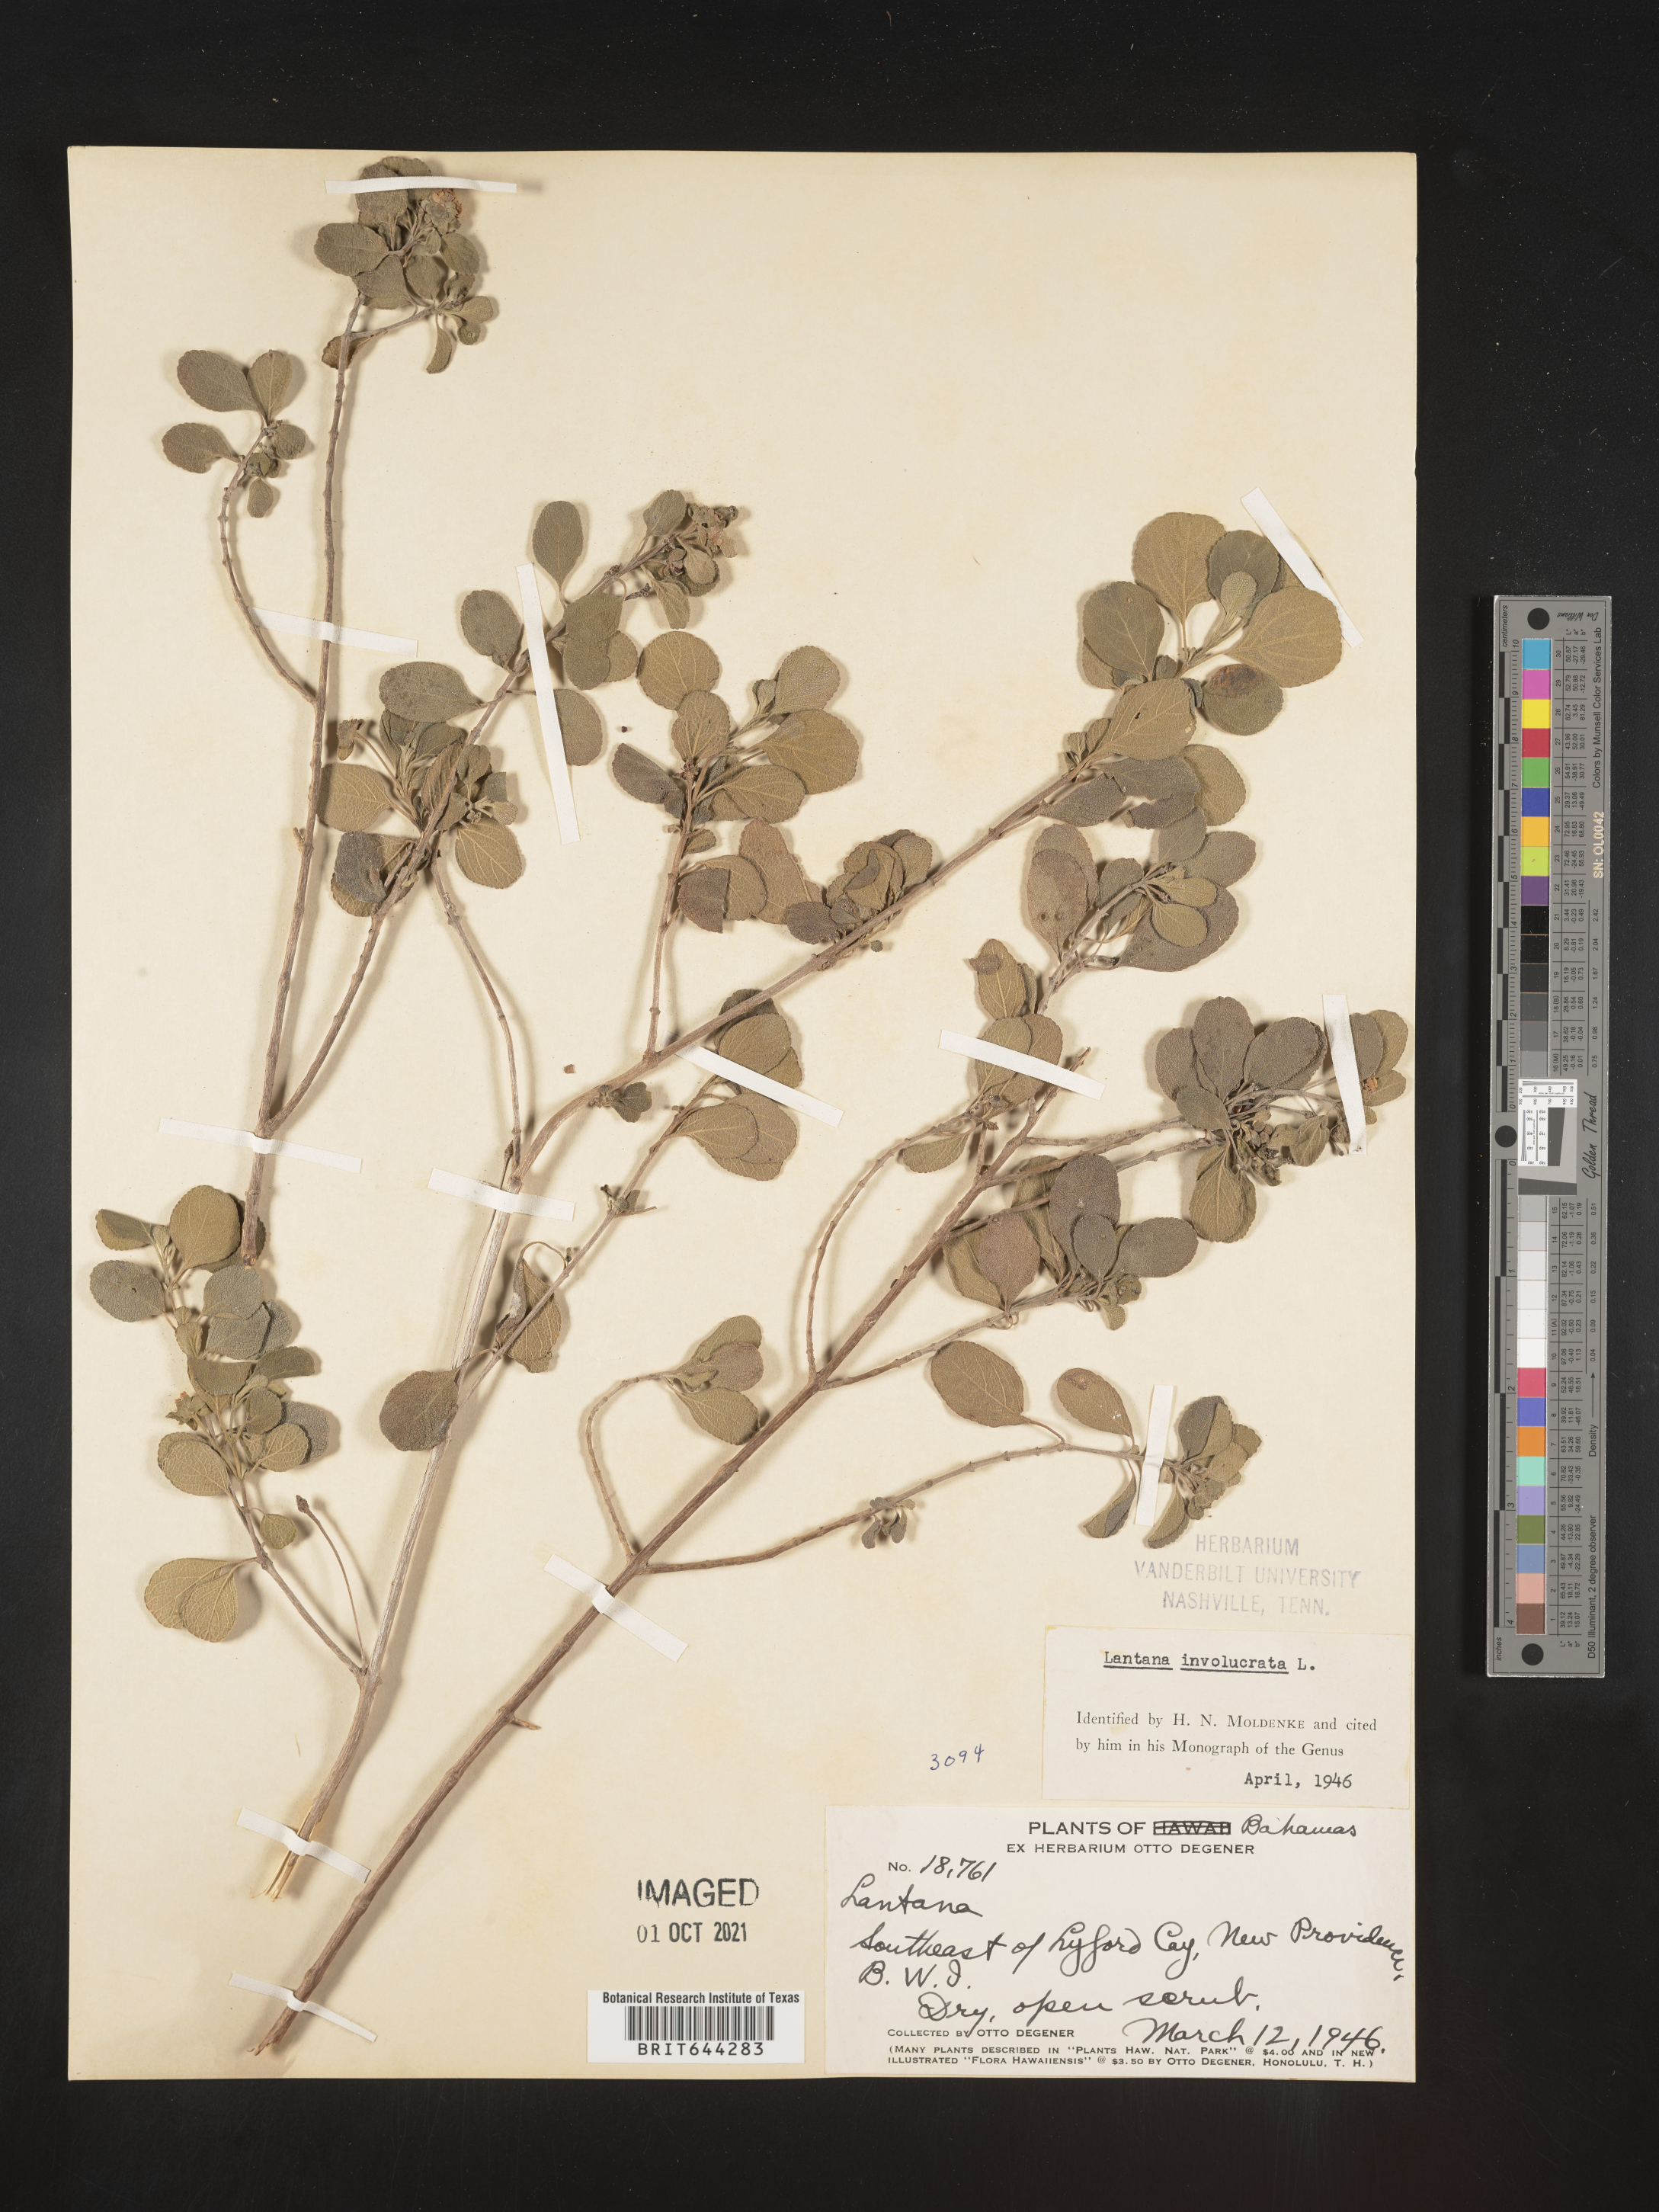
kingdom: Plantae
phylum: Tracheophyta
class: Magnoliopsida
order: Lamiales
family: Verbenaceae
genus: Lantana
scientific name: Lantana
